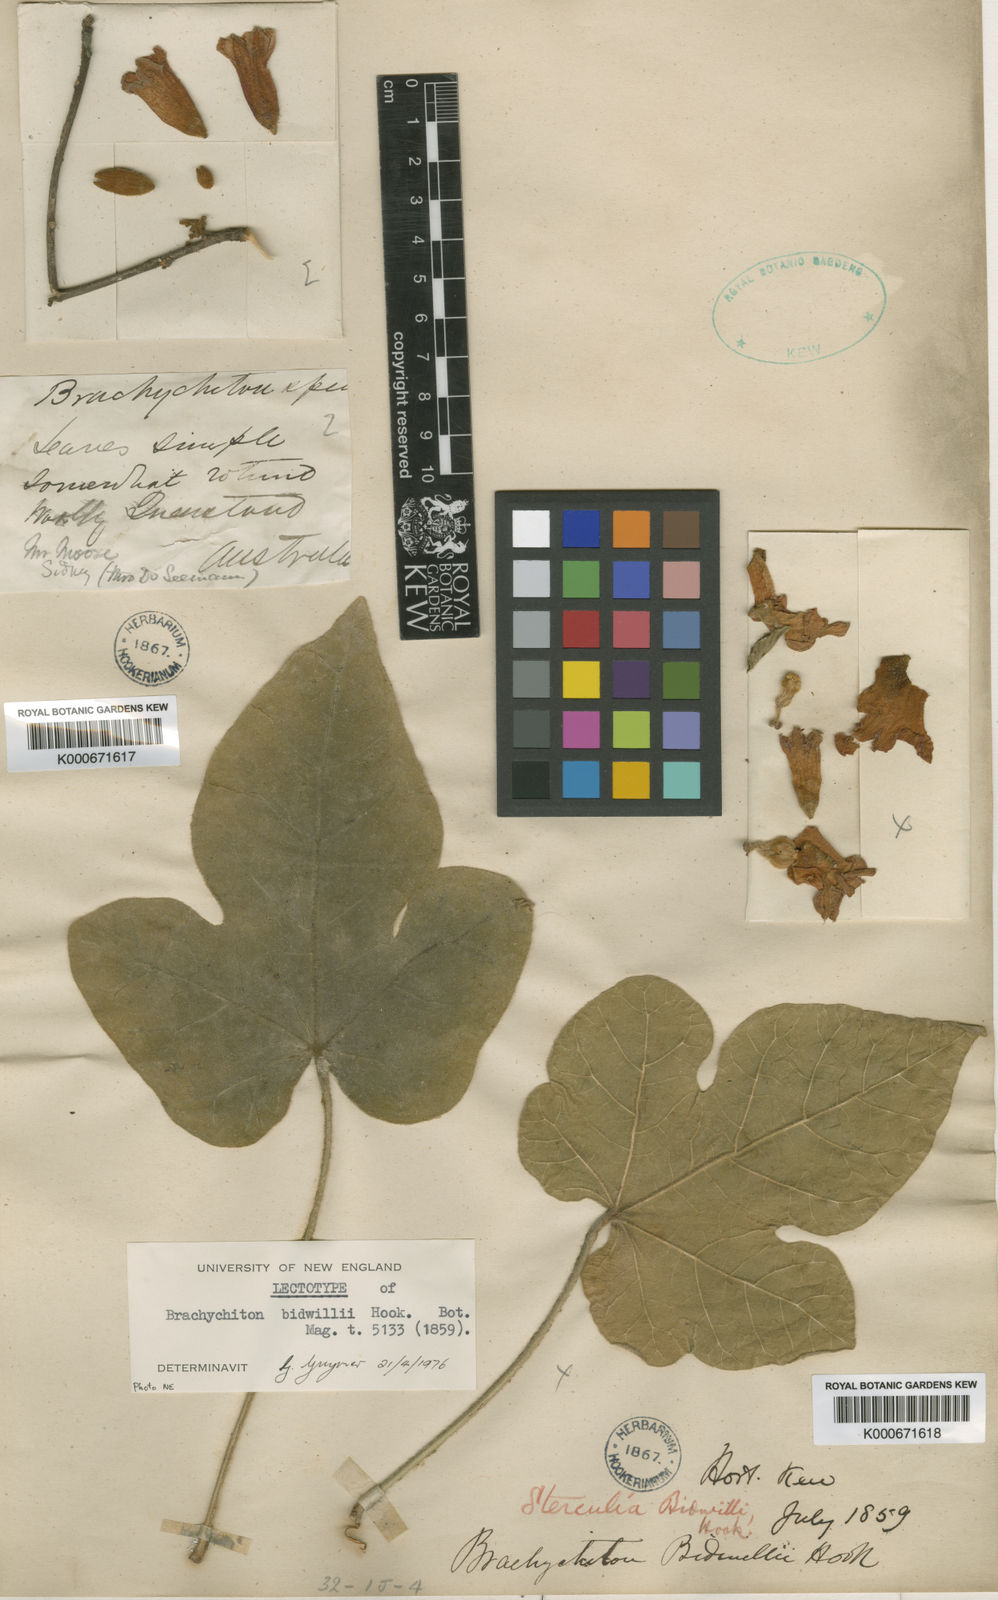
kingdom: Plantae
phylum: Tracheophyta
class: Magnoliopsida
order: Malvales
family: Malvaceae
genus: Brachychiton
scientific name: Brachychiton bidwillii
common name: Little kurrajong
